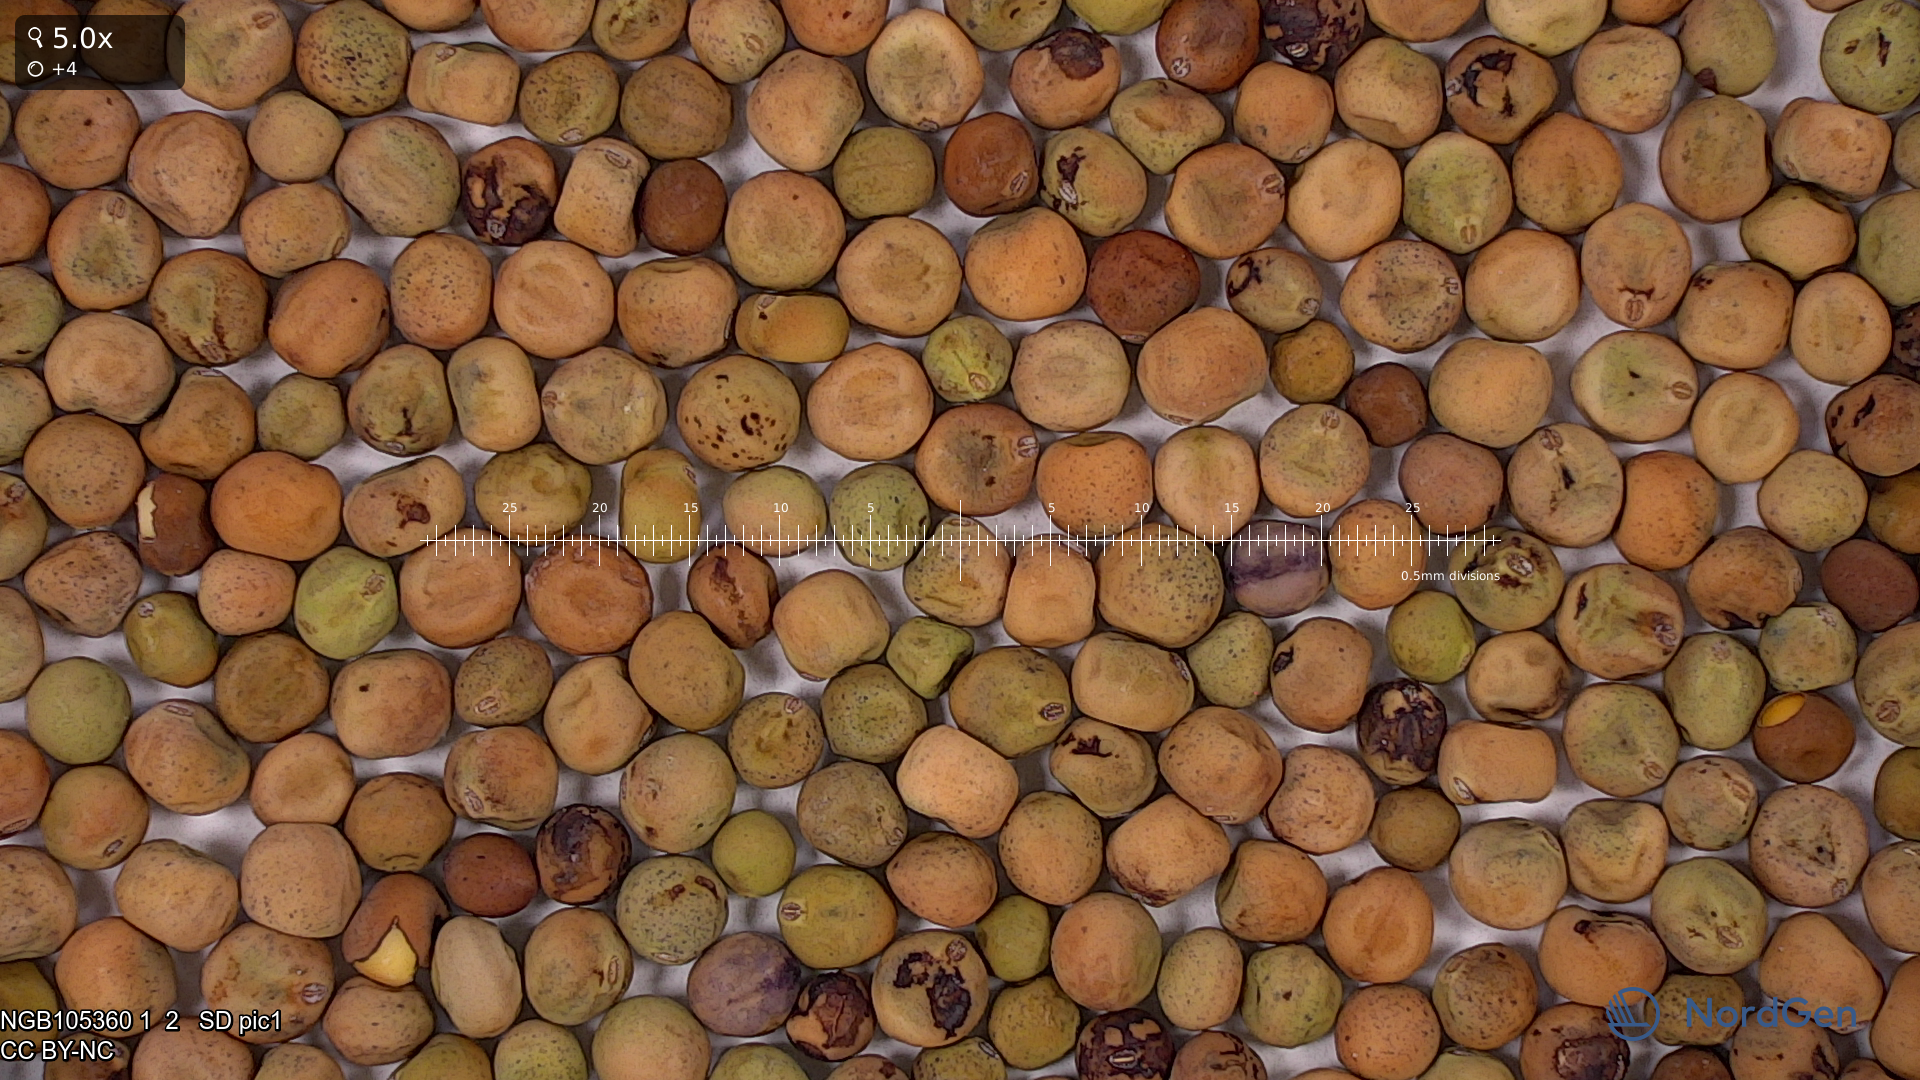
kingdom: Plantae
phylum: Tracheophyta
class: Magnoliopsida
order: Fabales
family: Fabaceae
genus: Lathyrus
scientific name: Lathyrus oleraceus
